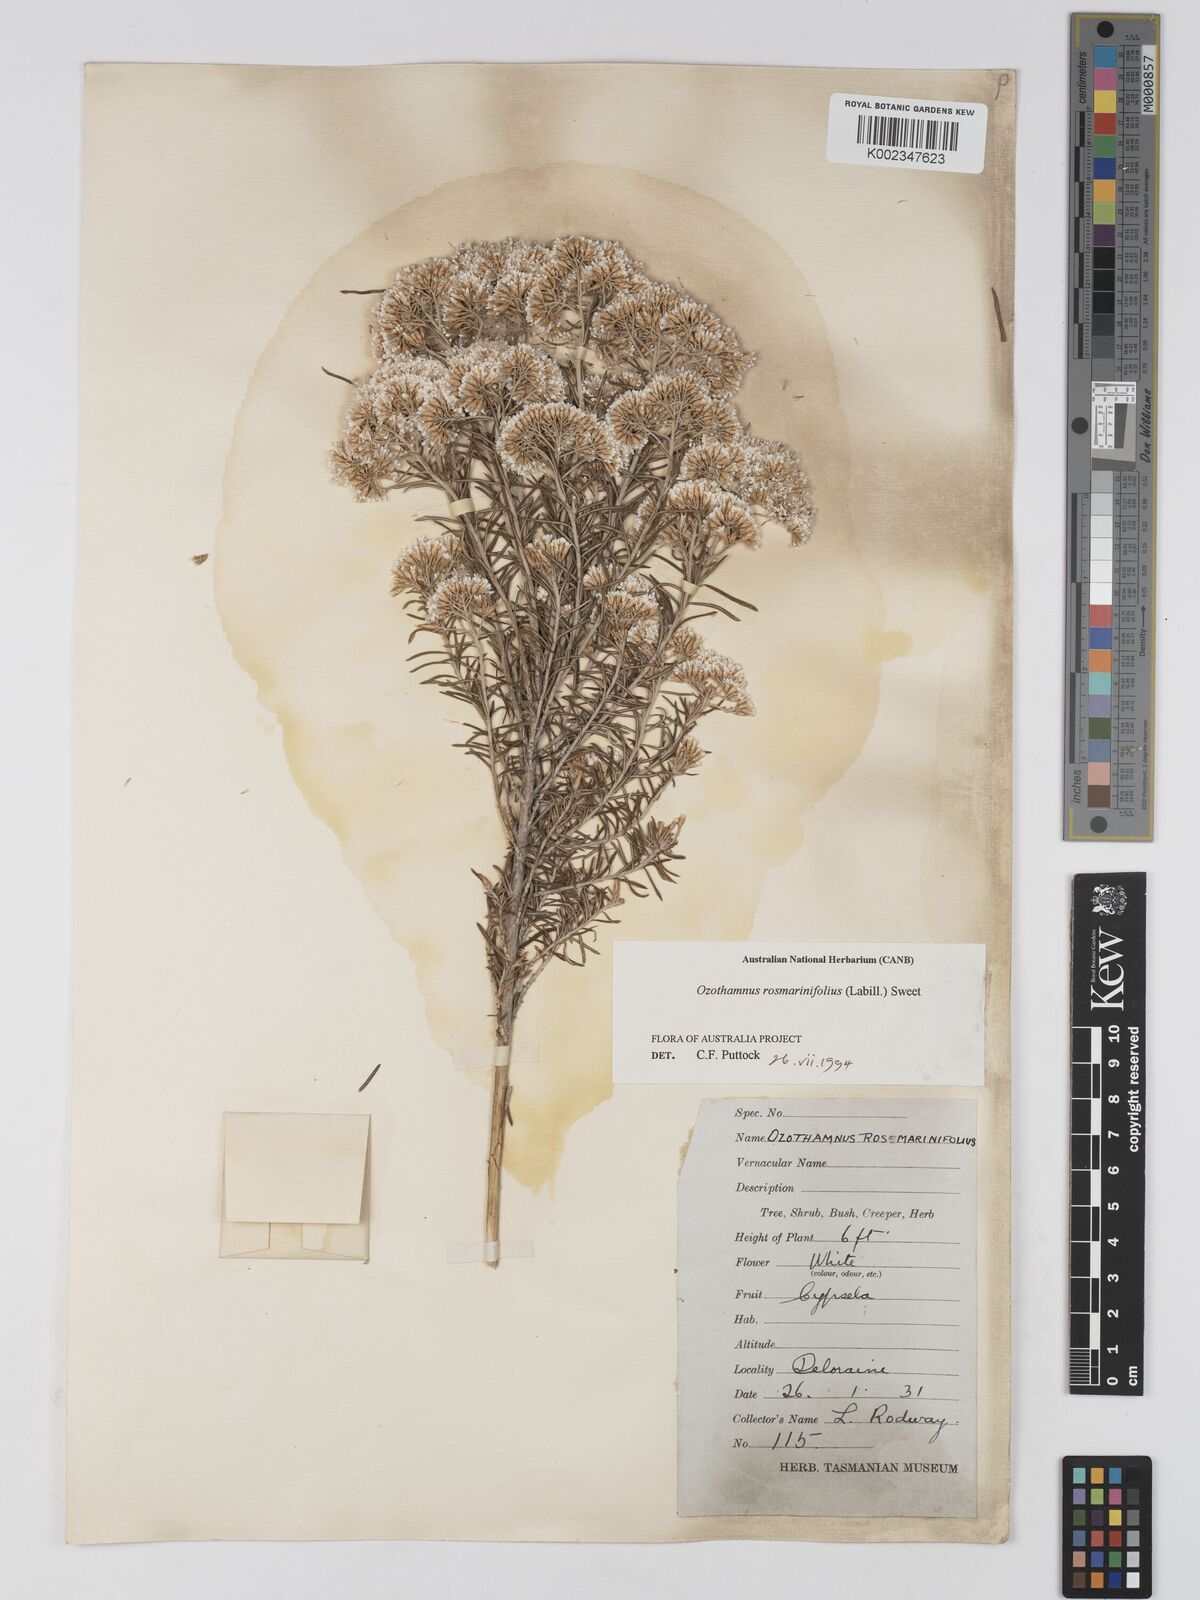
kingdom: Plantae
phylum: Tracheophyta
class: Magnoliopsida
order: Asterales
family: Asteraceae
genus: Ozothamnus
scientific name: Ozothamnus rosmarinifolius
